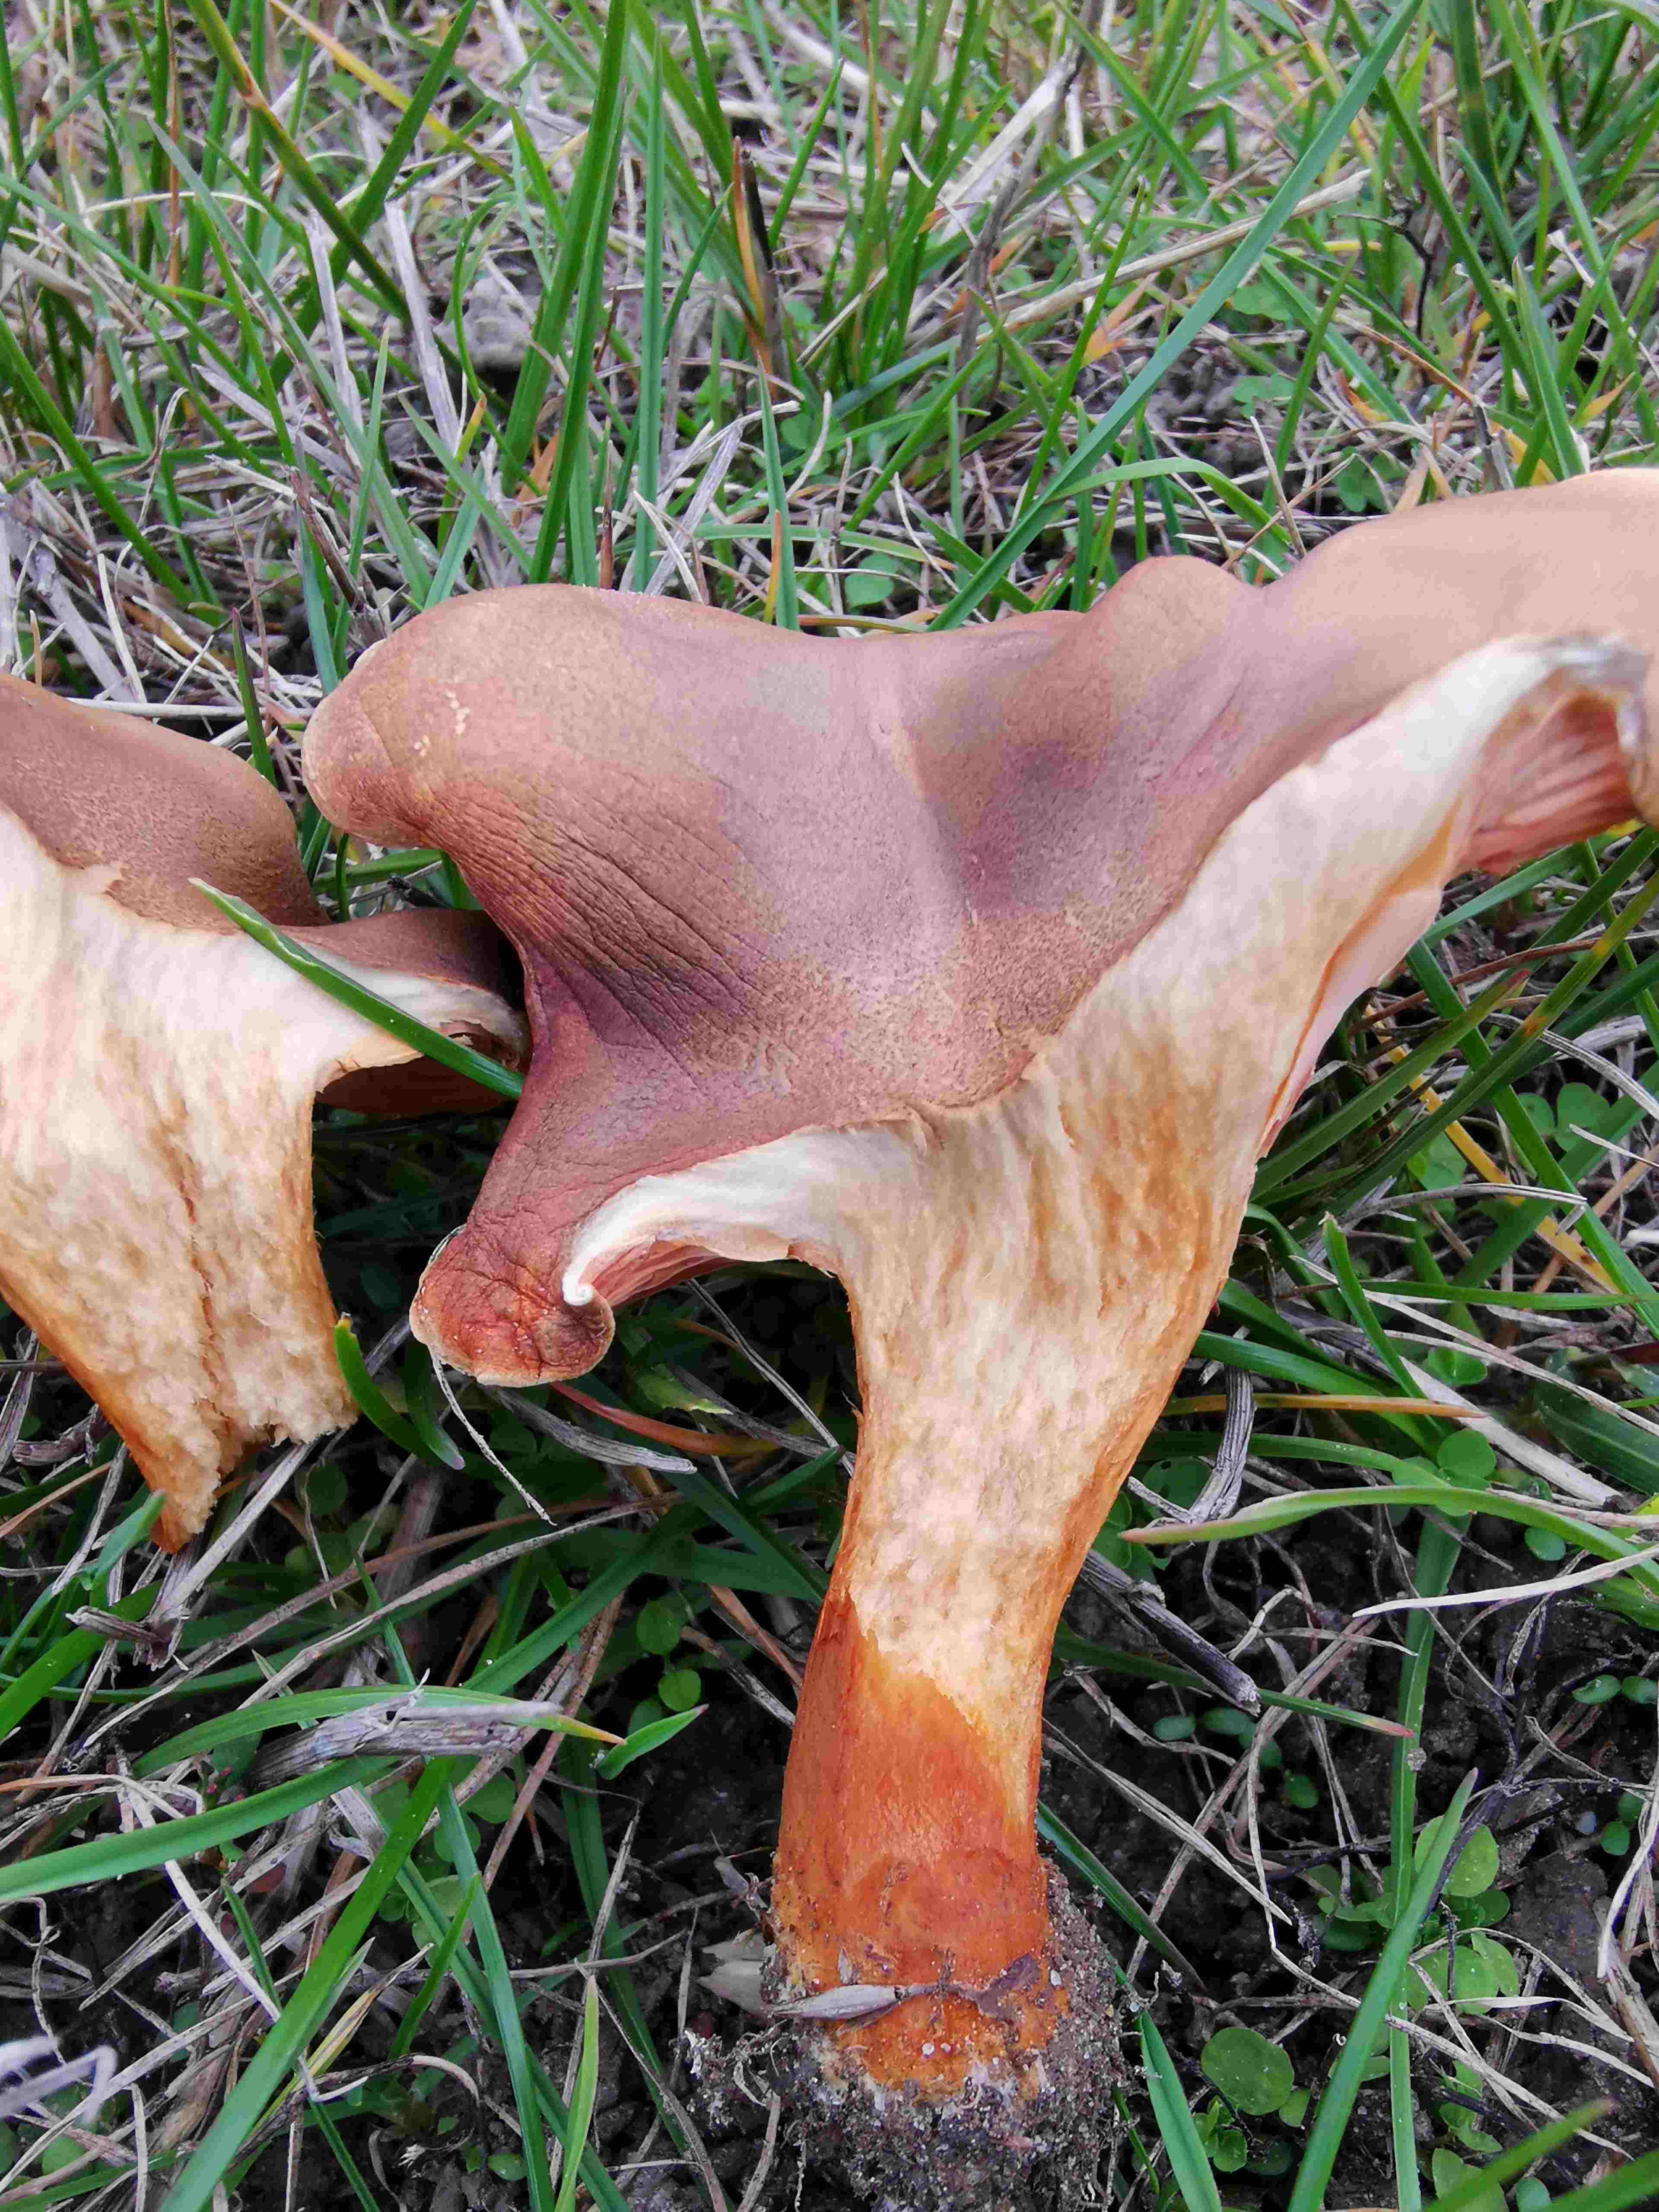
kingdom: Fungi
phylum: Basidiomycota
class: Agaricomycetes
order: Boletales
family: Hygrophoropsidaceae
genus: Hygrophoropsis
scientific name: Hygrophoropsis rufa
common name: brunfiltet orangekantarel
